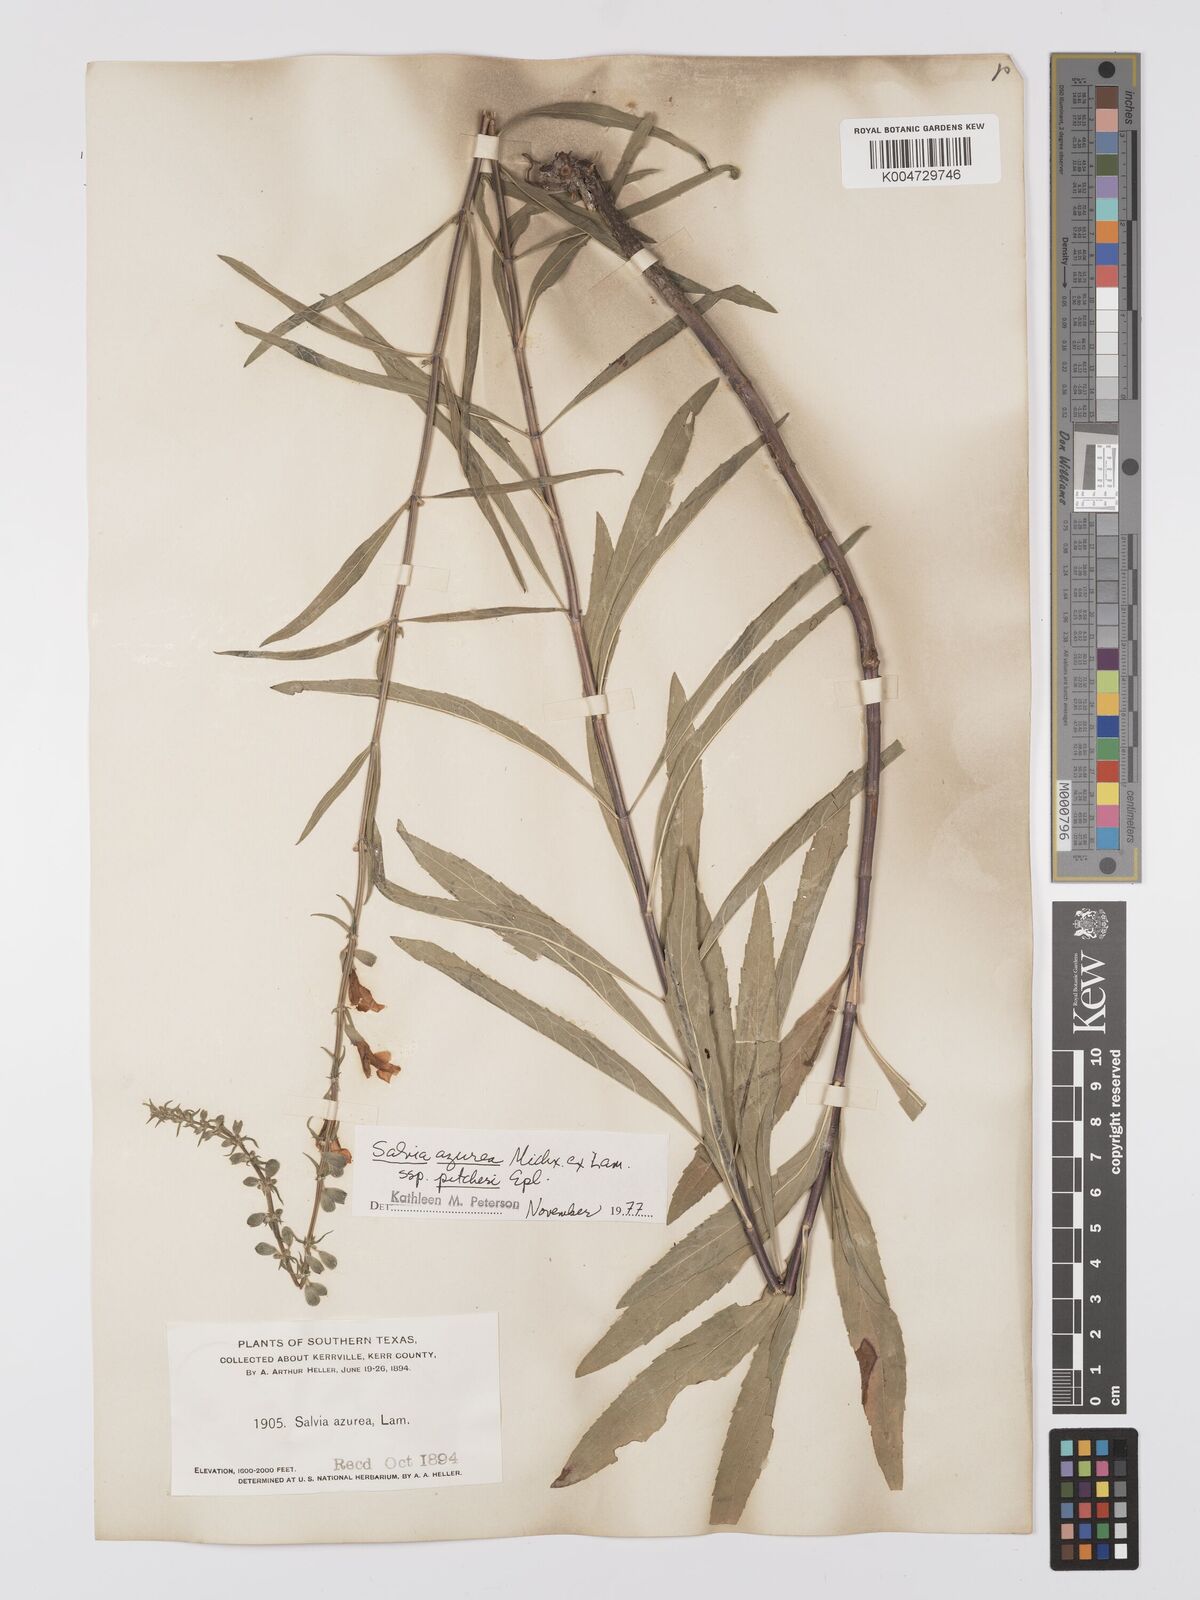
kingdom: Plantae
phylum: Tracheophyta
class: Magnoliopsida
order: Lamiales
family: Lamiaceae
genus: Salvia
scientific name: Salvia azurea
